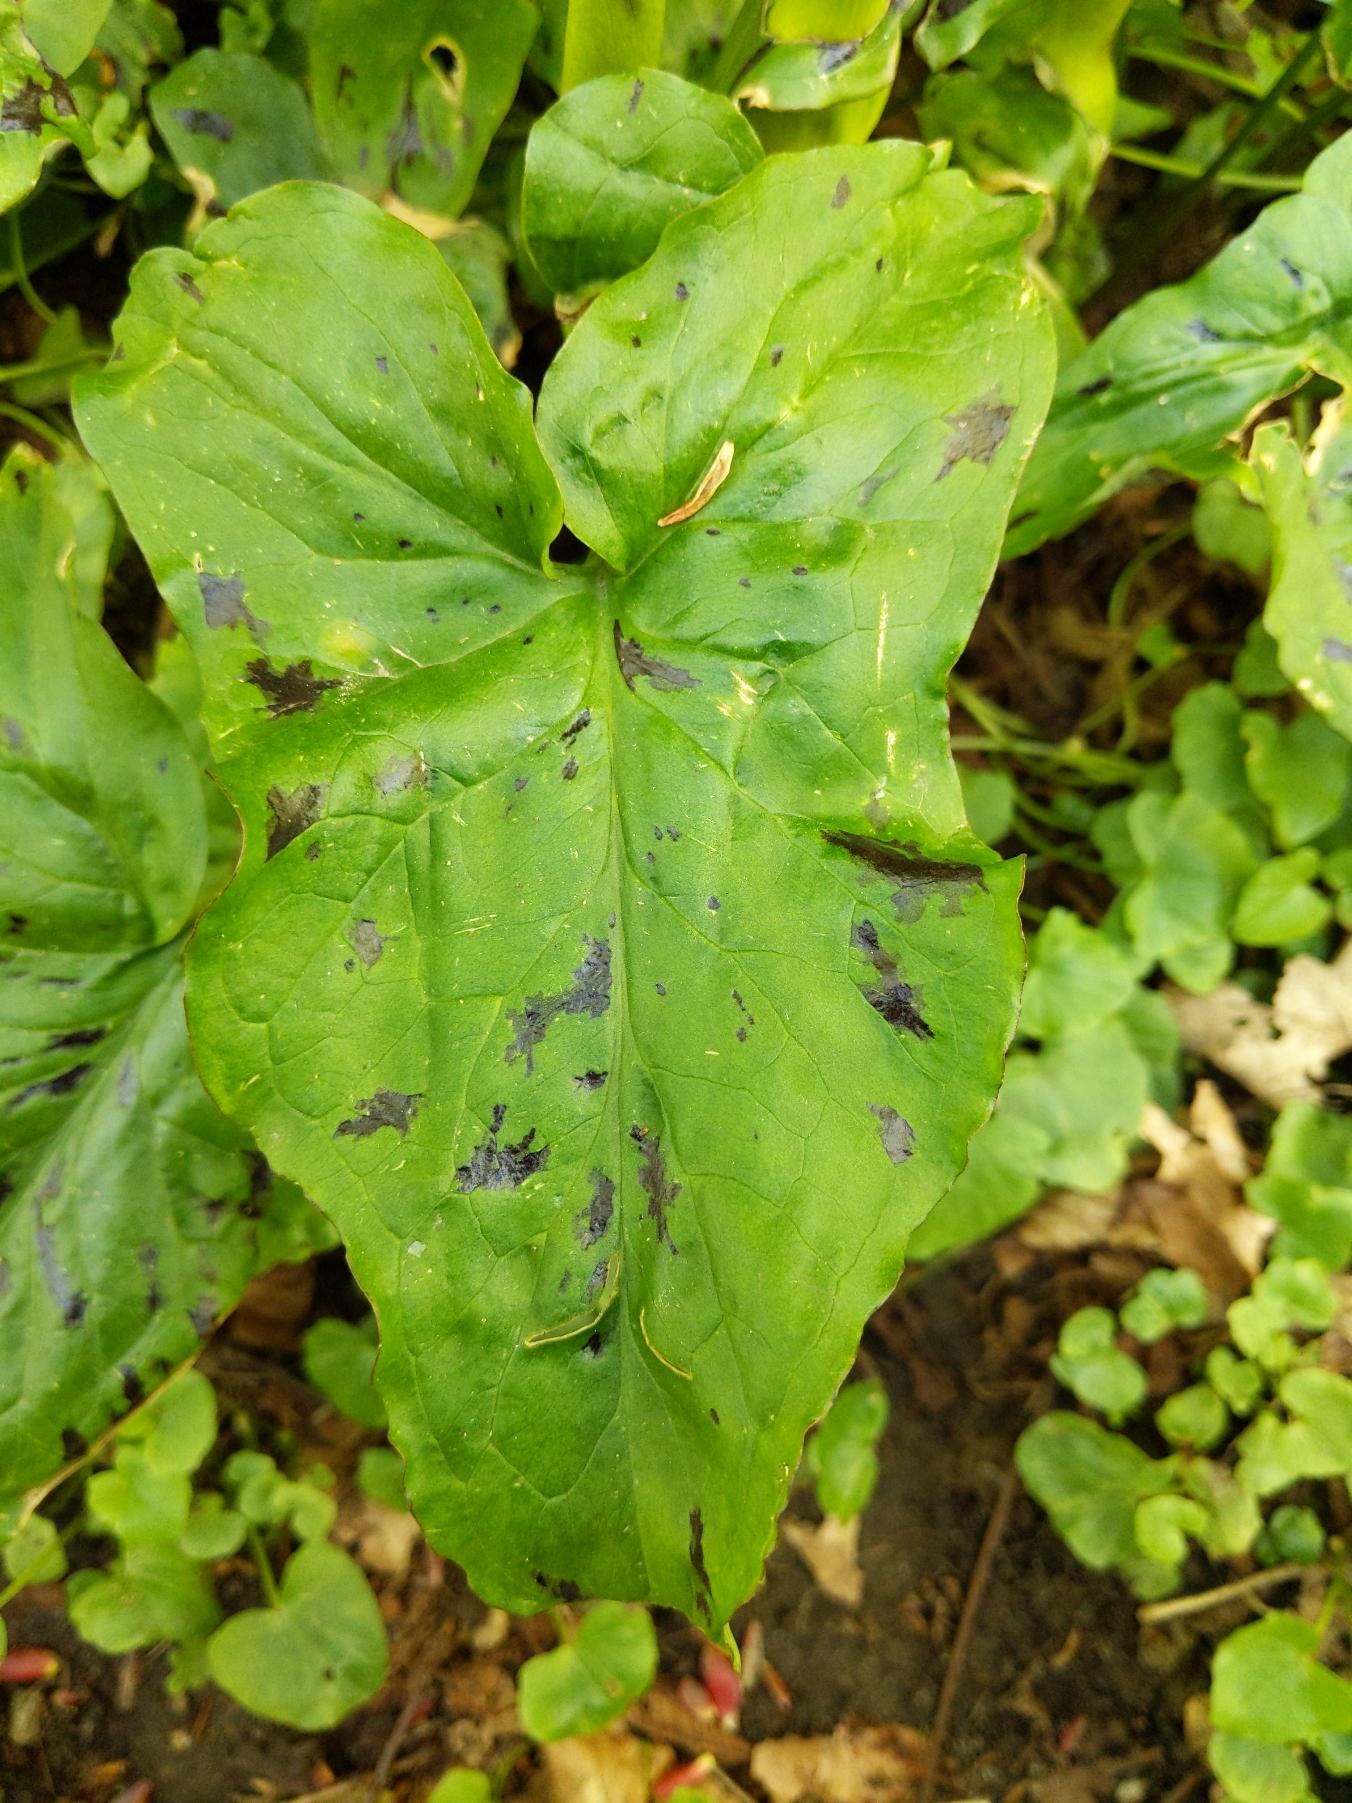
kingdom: Plantae
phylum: Tracheophyta
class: Liliopsida
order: Alismatales
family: Araceae
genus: Arum
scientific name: Arum maculatum
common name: Plettet arum
